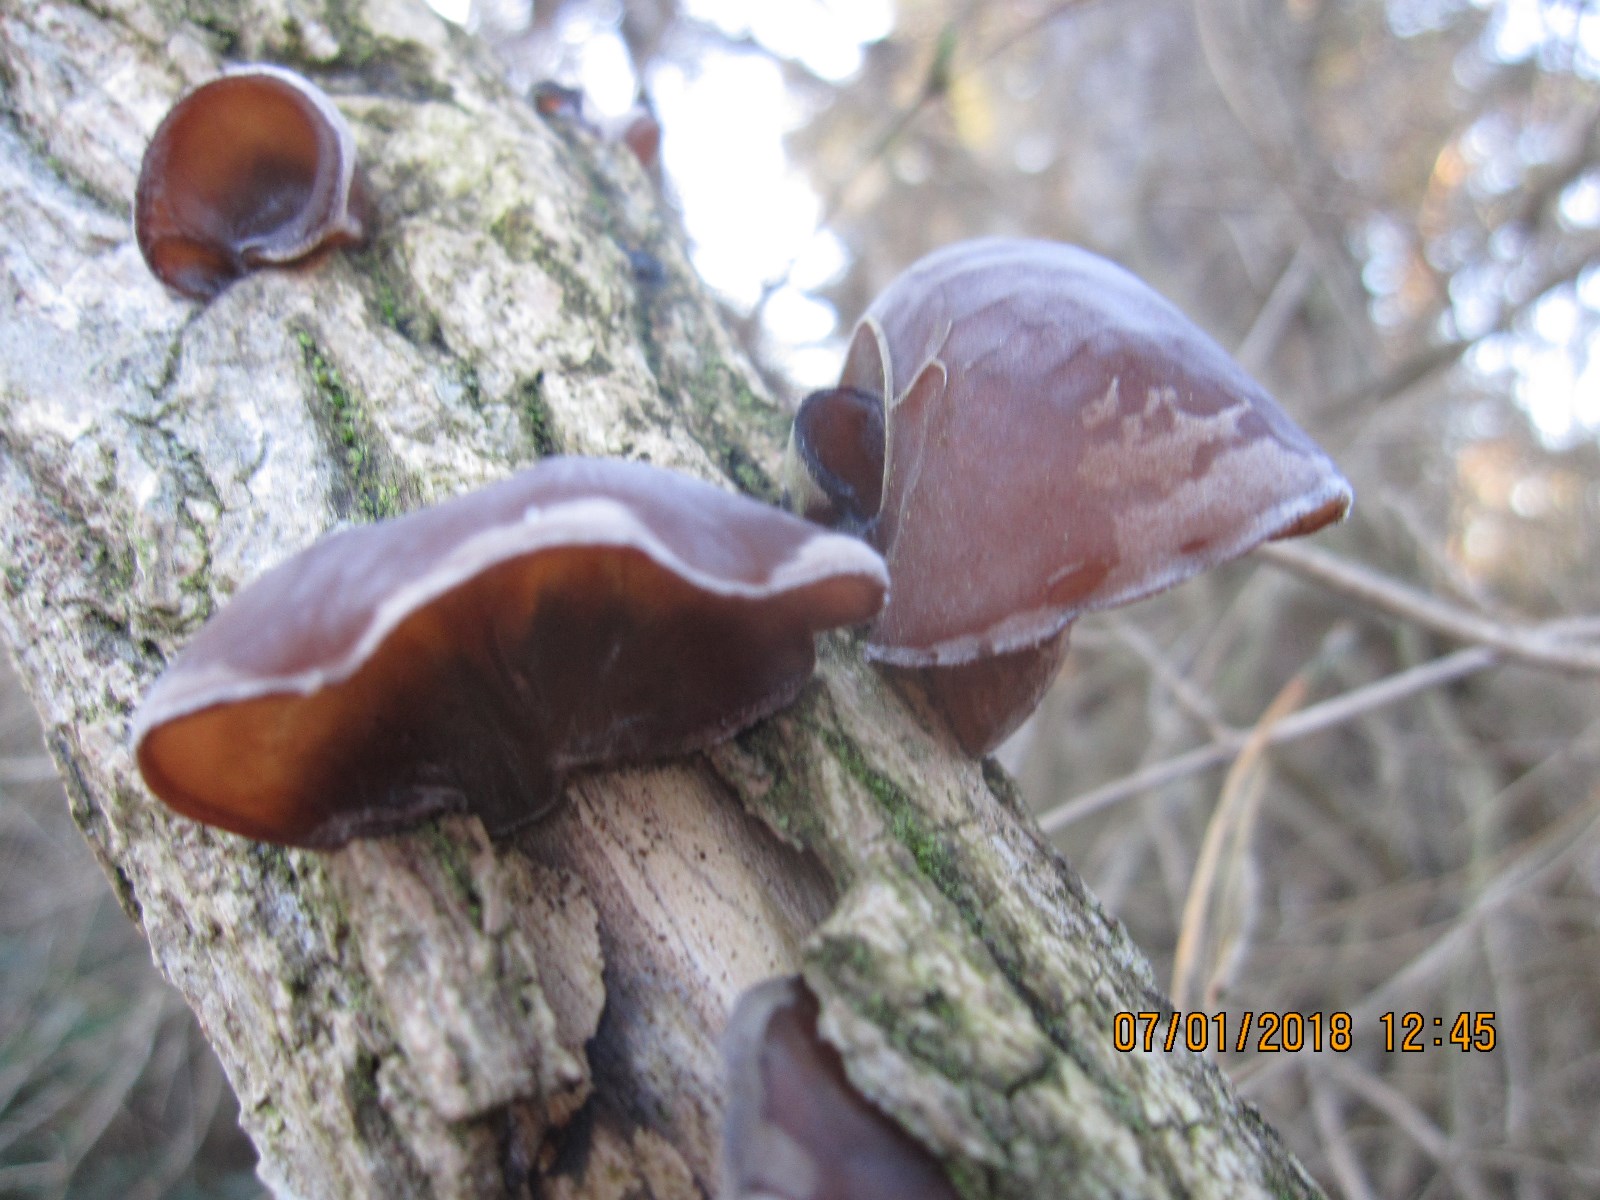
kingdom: Fungi
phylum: Basidiomycota
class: Agaricomycetes
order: Auriculariales
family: Auriculariaceae
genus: Auricularia
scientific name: Auricularia auricula-judae
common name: almindelig judasøre
